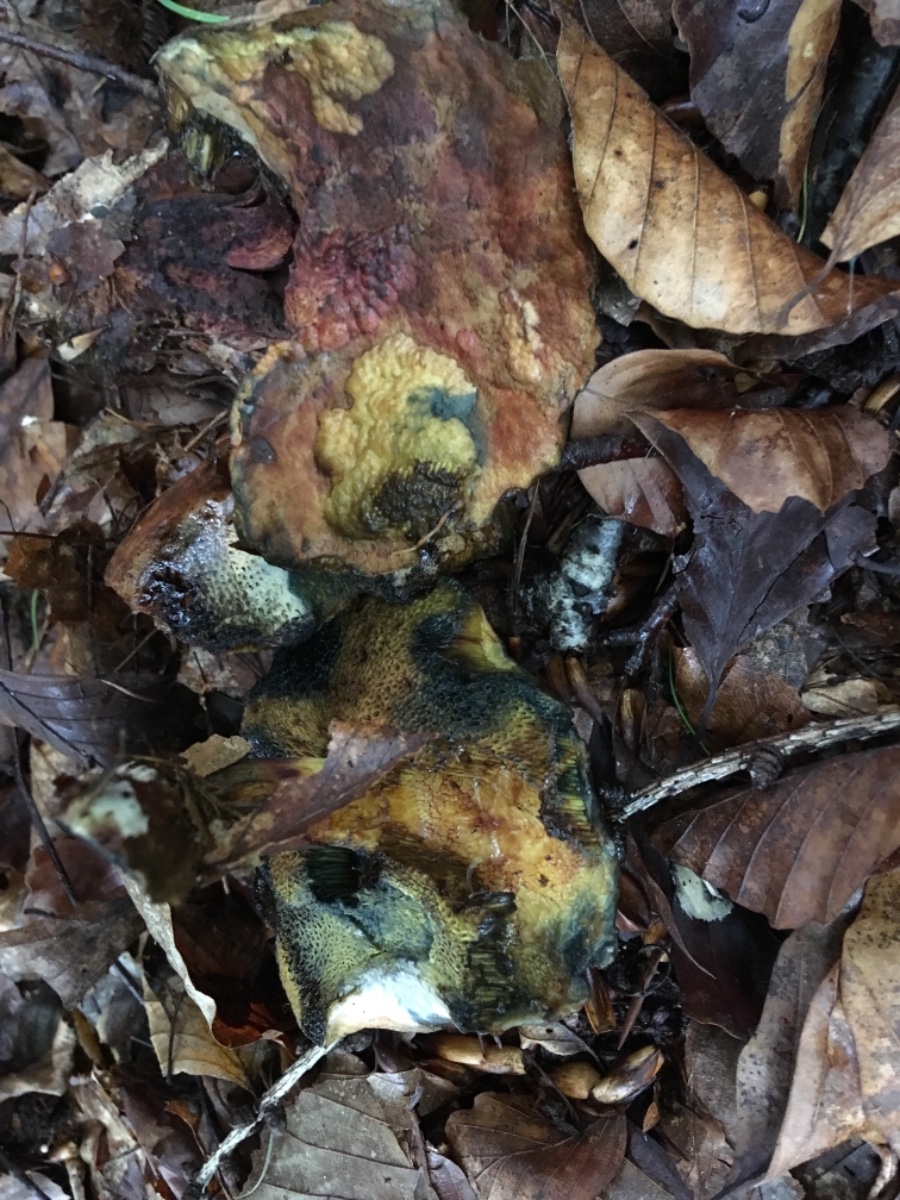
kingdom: Fungi
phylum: Basidiomycota
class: Agaricomycetes
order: Boletales
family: Boletaceae
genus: Cyanoboletus
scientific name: Cyanoboletus pulverulentus
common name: sortblånende rørhat
